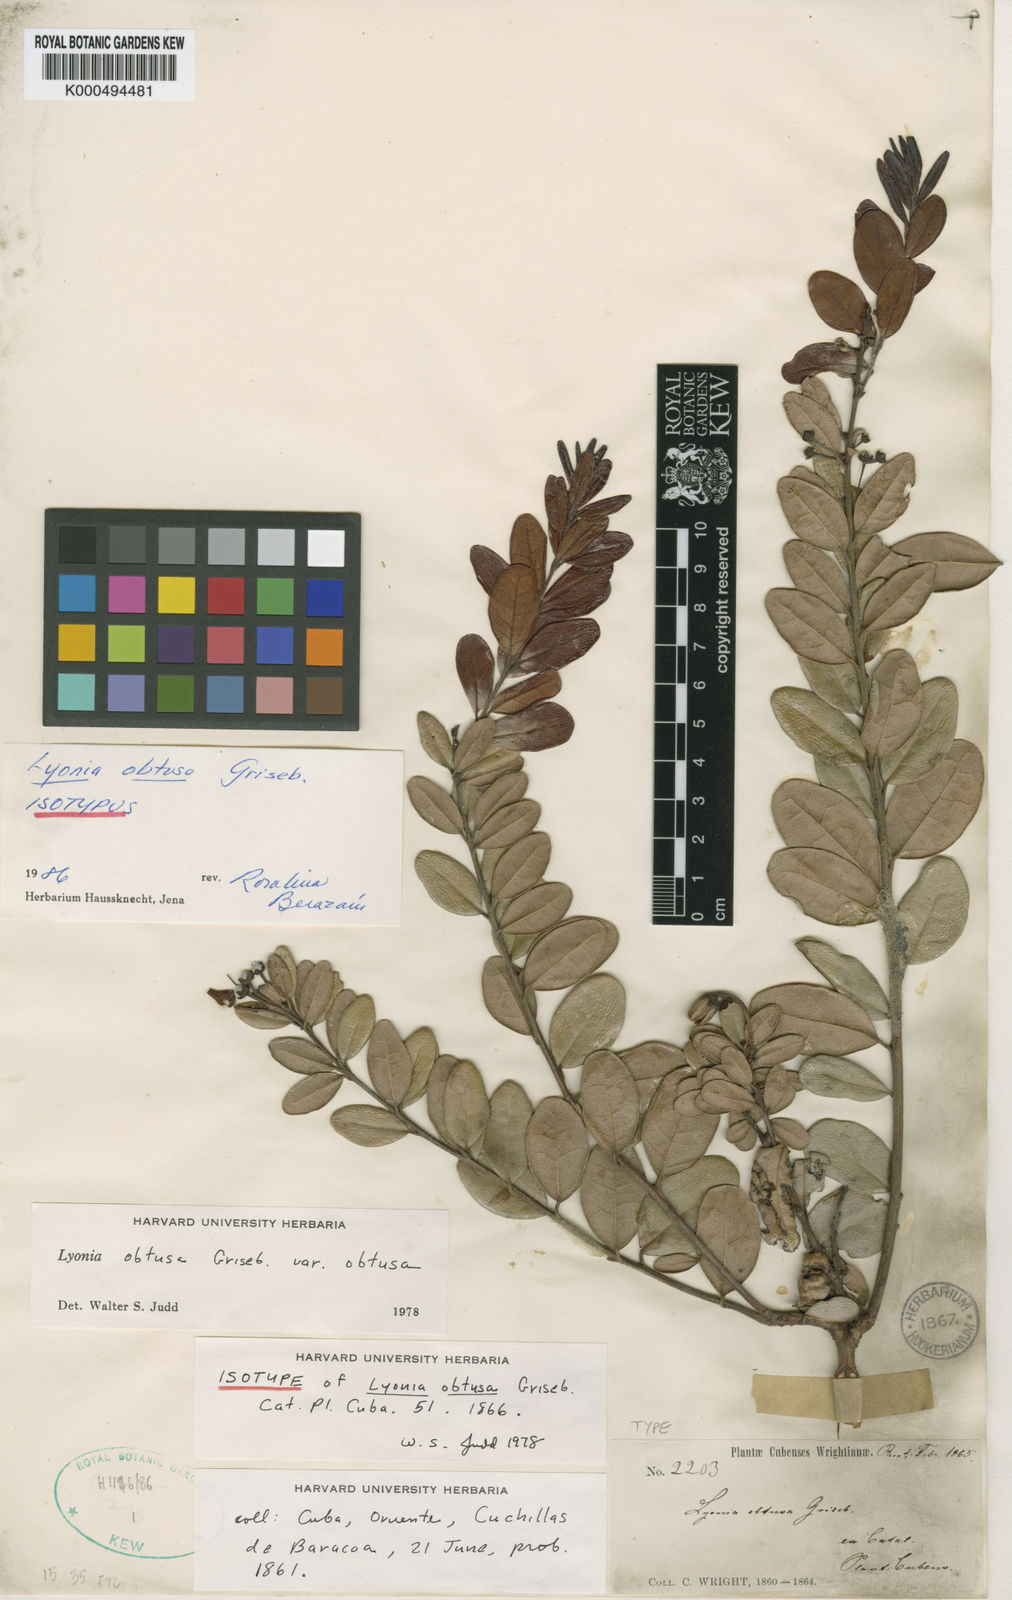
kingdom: Plantae
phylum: Tracheophyta
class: Magnoliopsida
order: Ericales
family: Ericaceae
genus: Lyonia
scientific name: Lyonia obtusa
